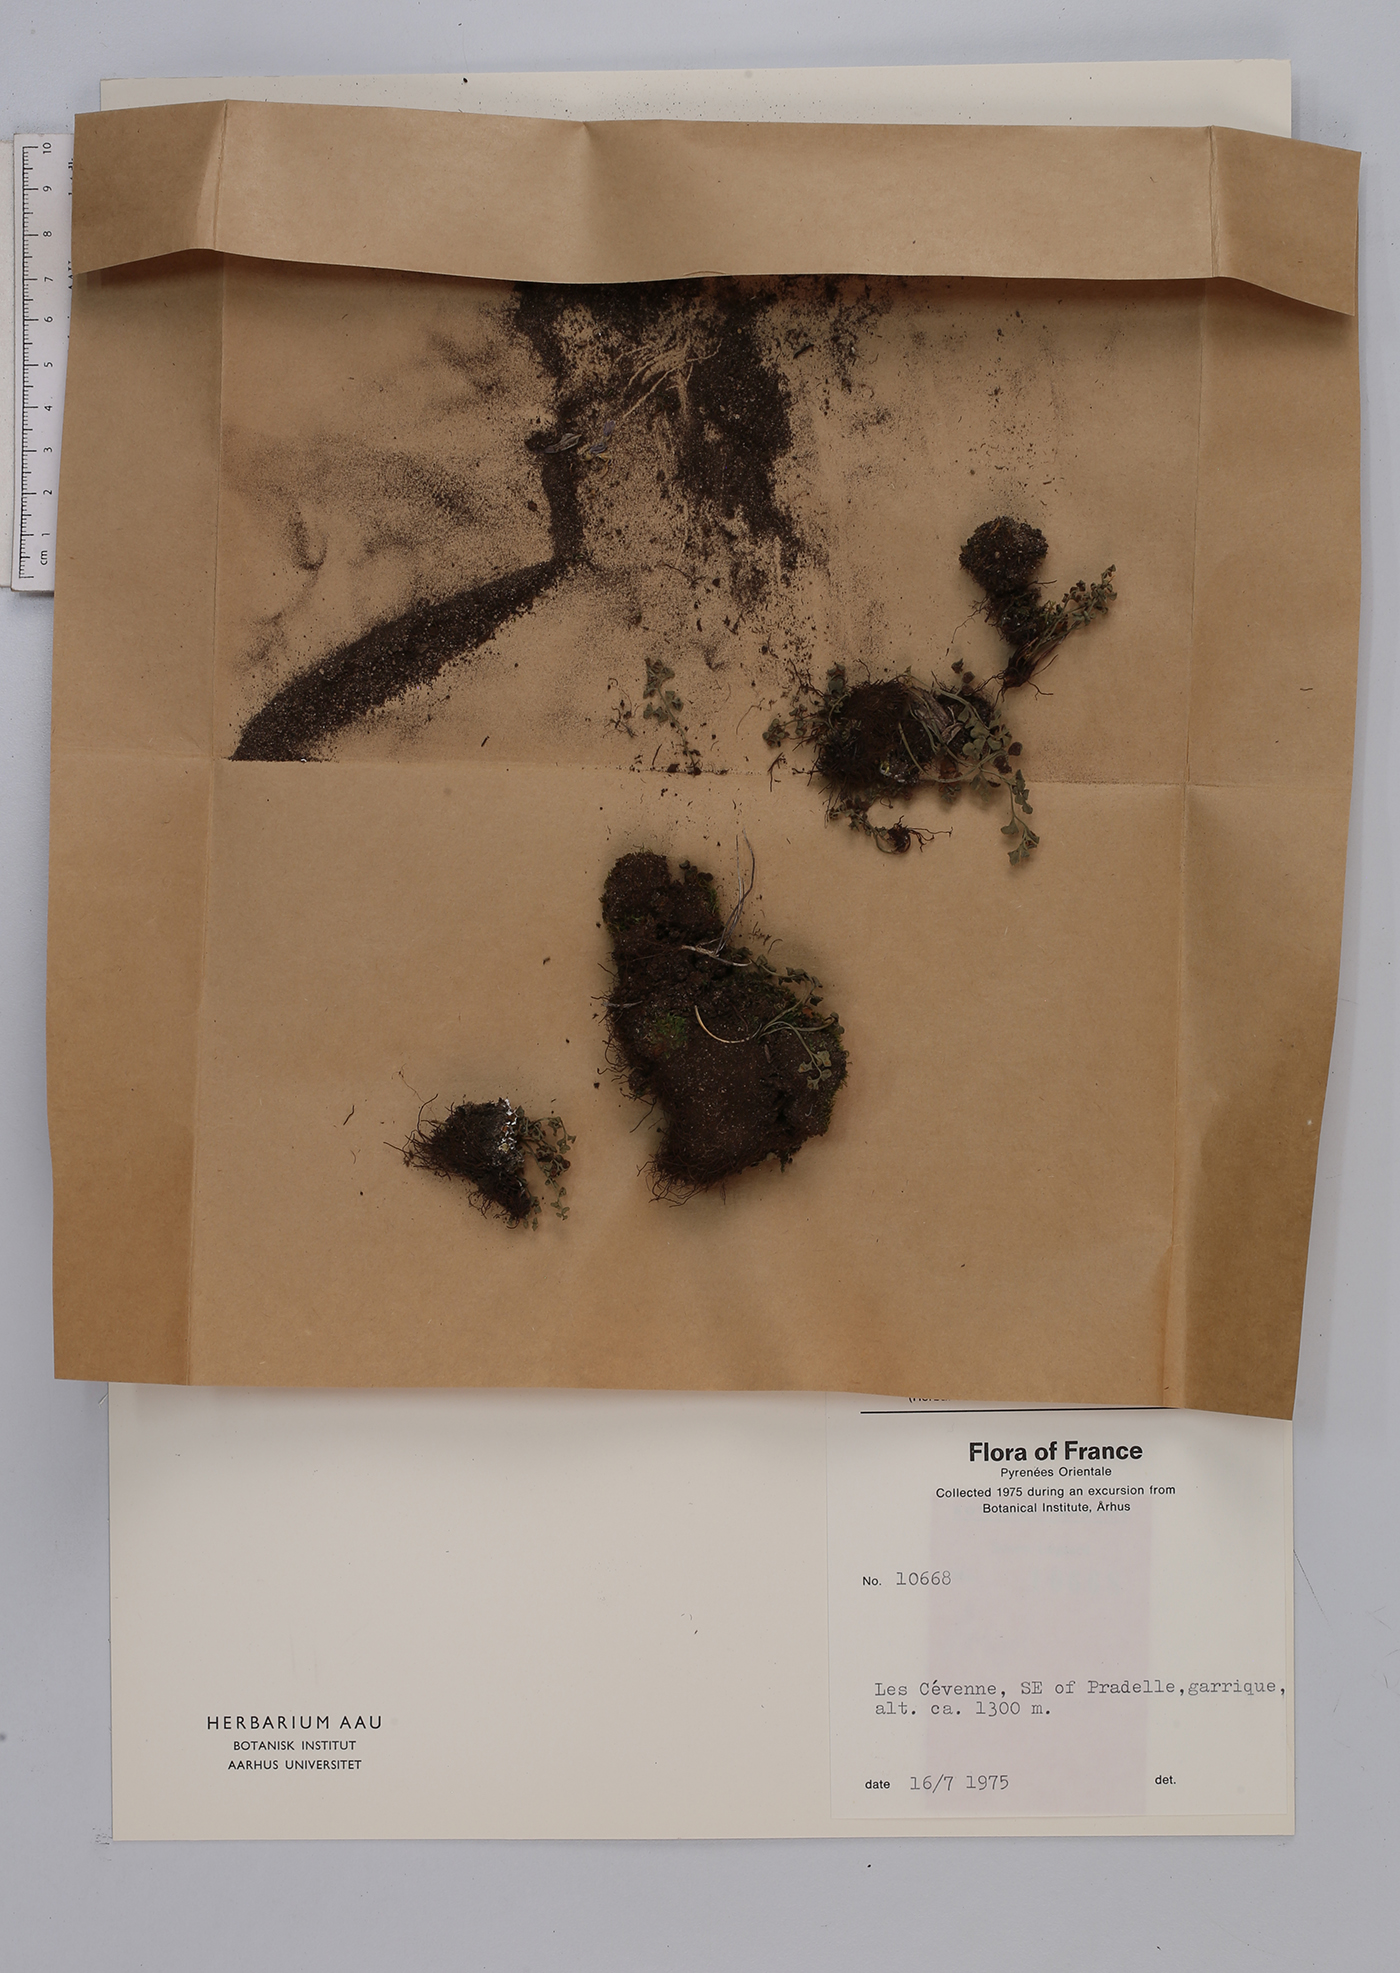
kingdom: Plantae
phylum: Tracheophyta
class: Polypodiopsida
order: Polypodiales
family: Aspleniaceae
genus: Asplenium
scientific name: Asplenium ruta-muraria
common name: Wall-rue
